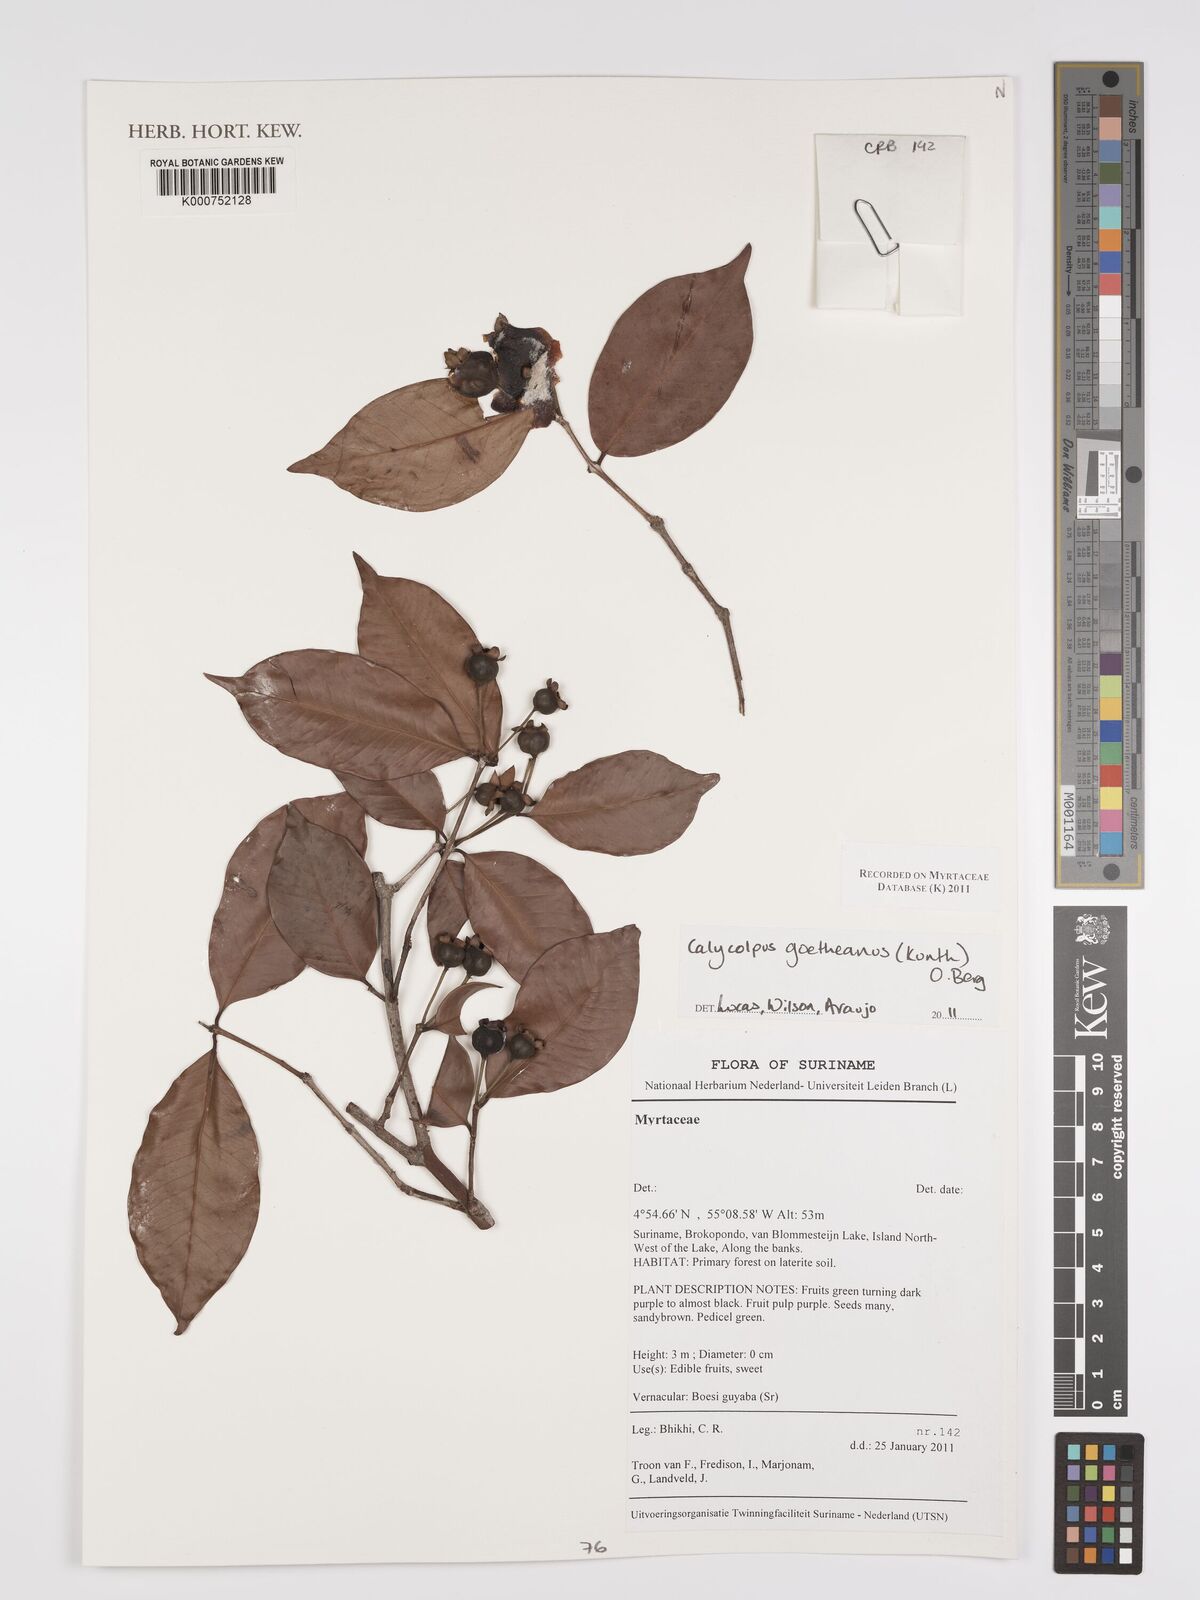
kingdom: Plantae
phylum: Tracheophyta
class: Magnoliopsida
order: Myrtales
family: Myrtaceae
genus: Calycolpus
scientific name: Calycolpus goetheanus
